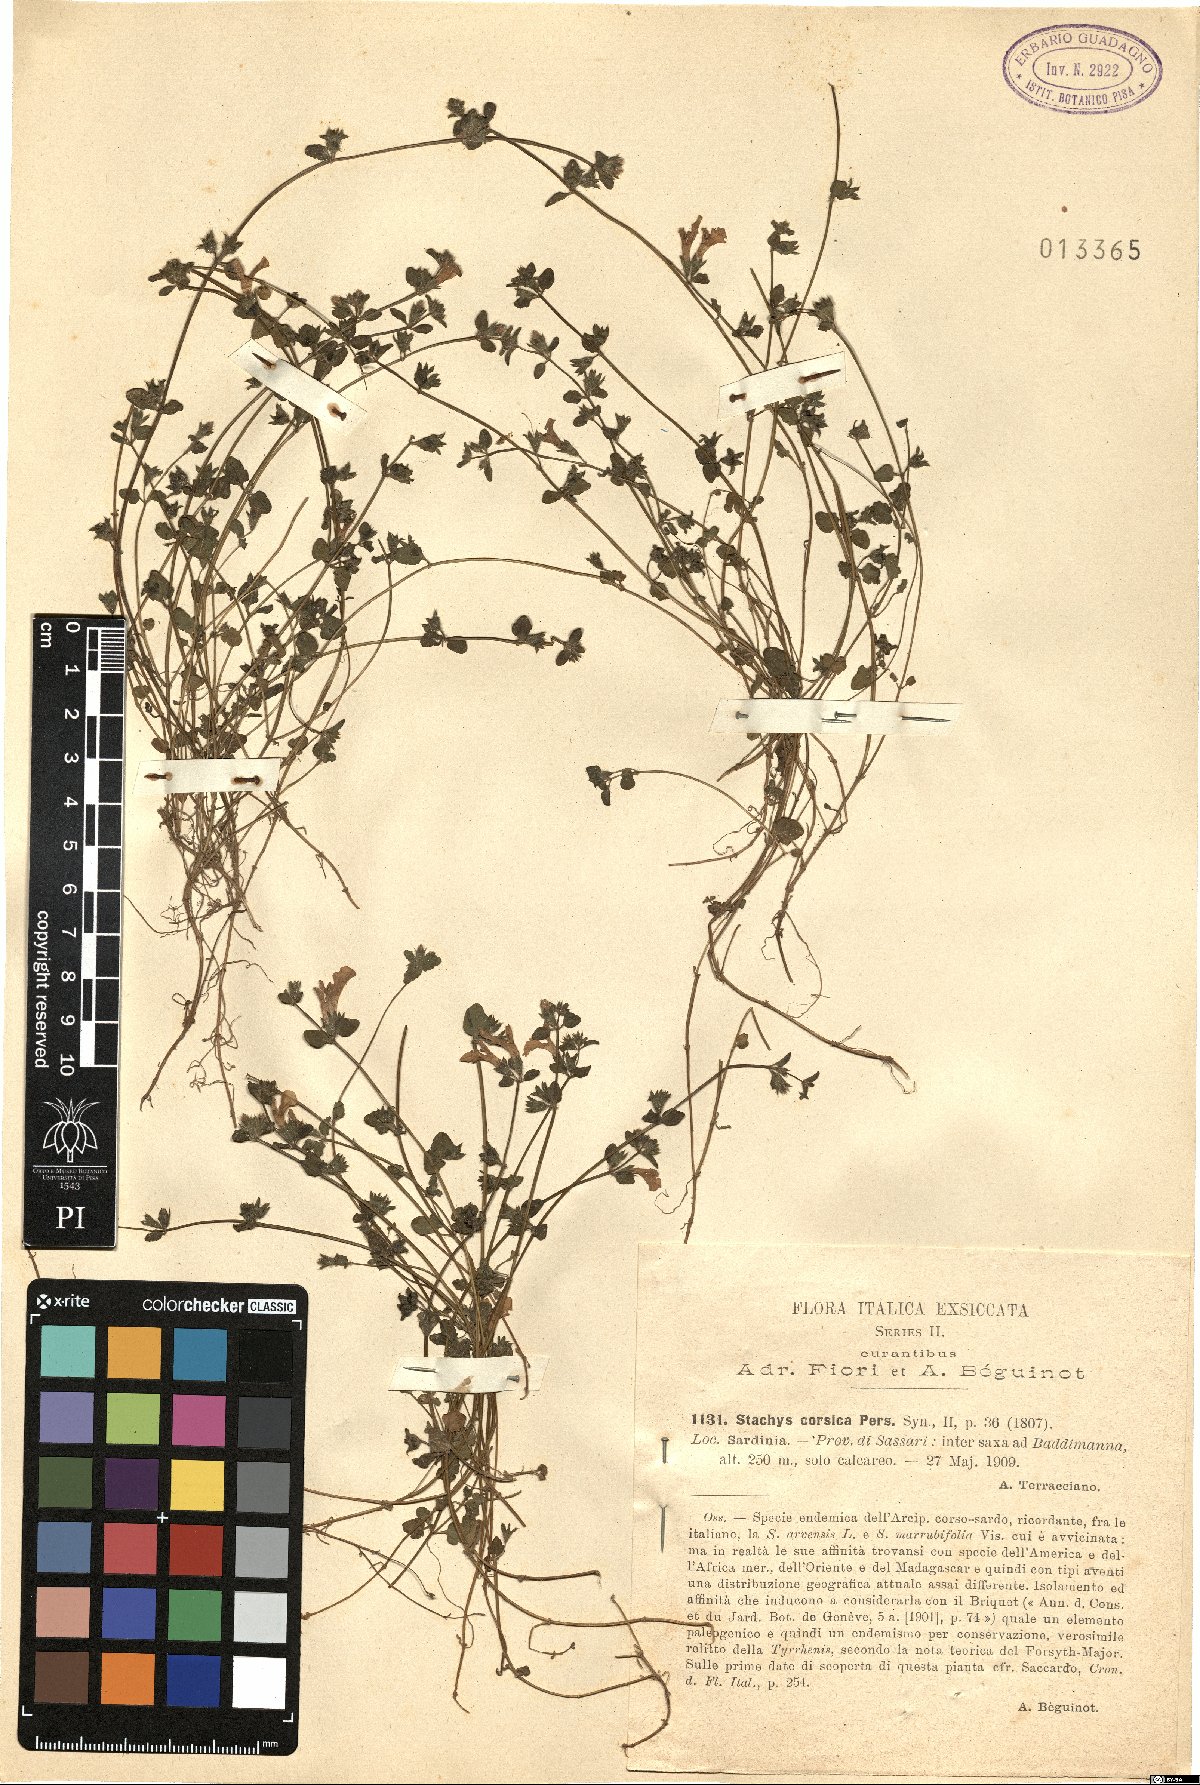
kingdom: Plantae
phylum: Tracheophyta
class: Magnoliopsida
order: Lamiales
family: Lamiaceae
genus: Stachys
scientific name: Stachys corsica
